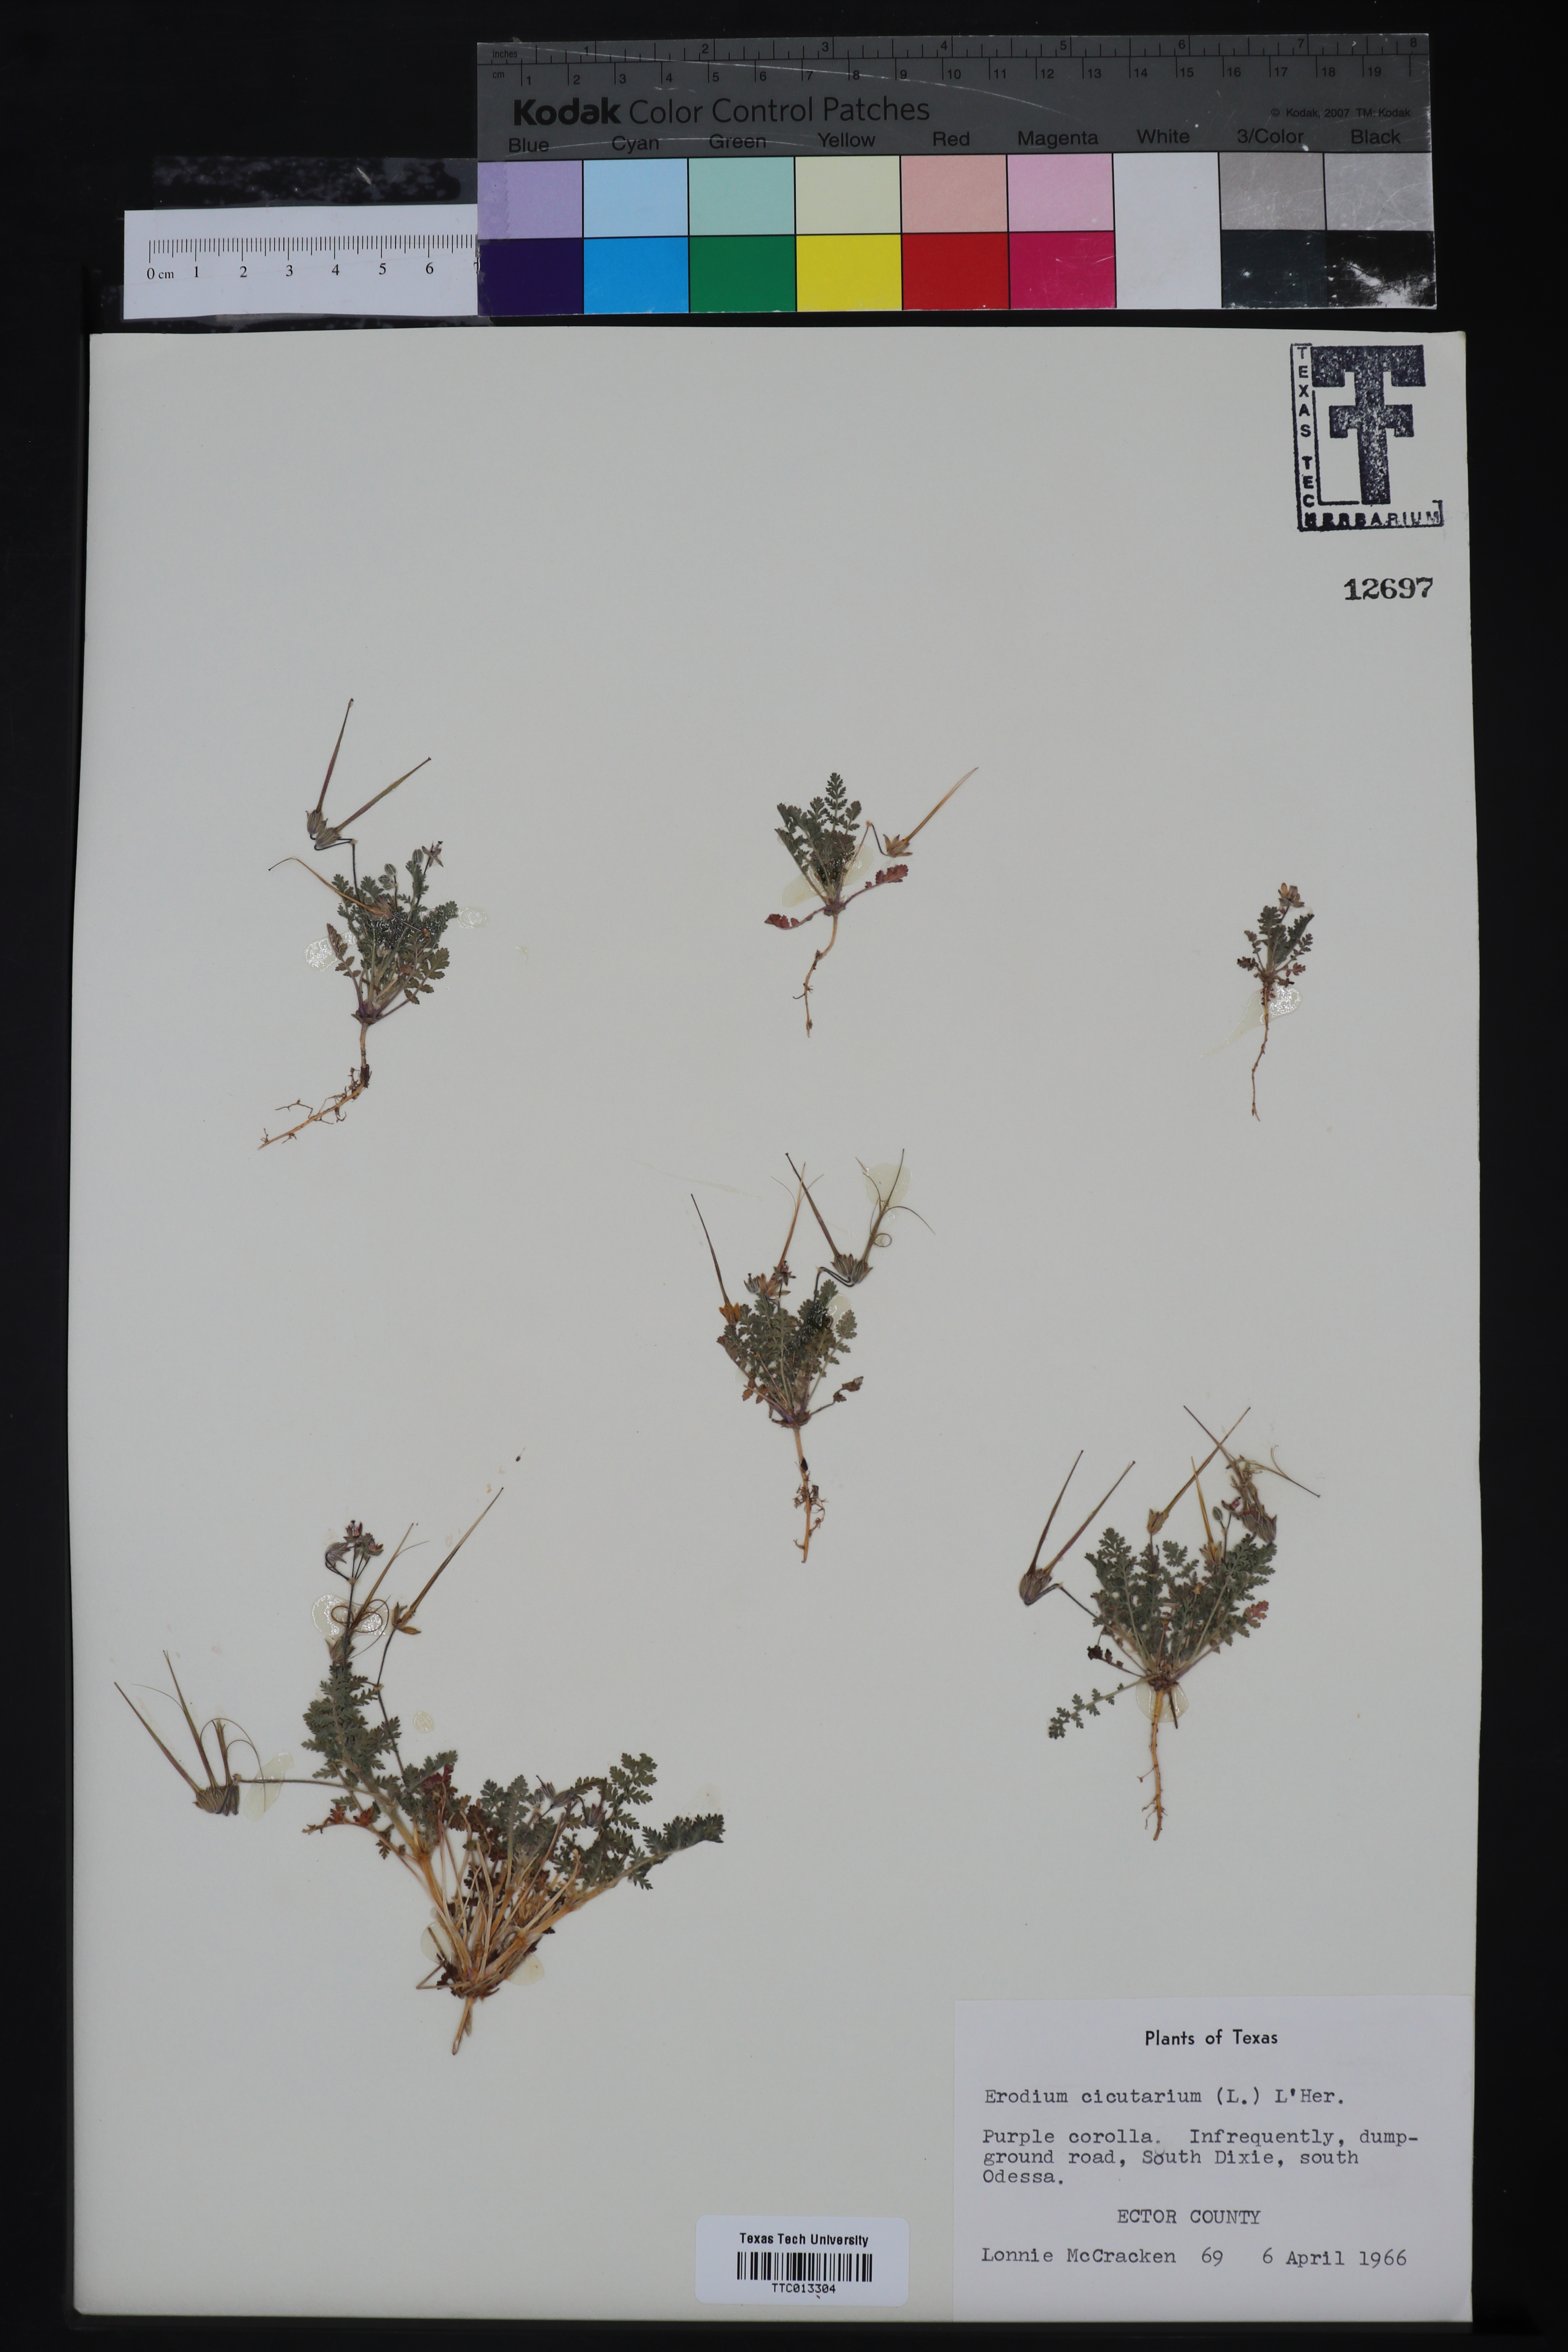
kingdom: Plantae
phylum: Tracheophyta
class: Magnoliopsida
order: Geraniales
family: Geraniaceae
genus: Erodium
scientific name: Erodium cicutarium
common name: Common stork's-bill
